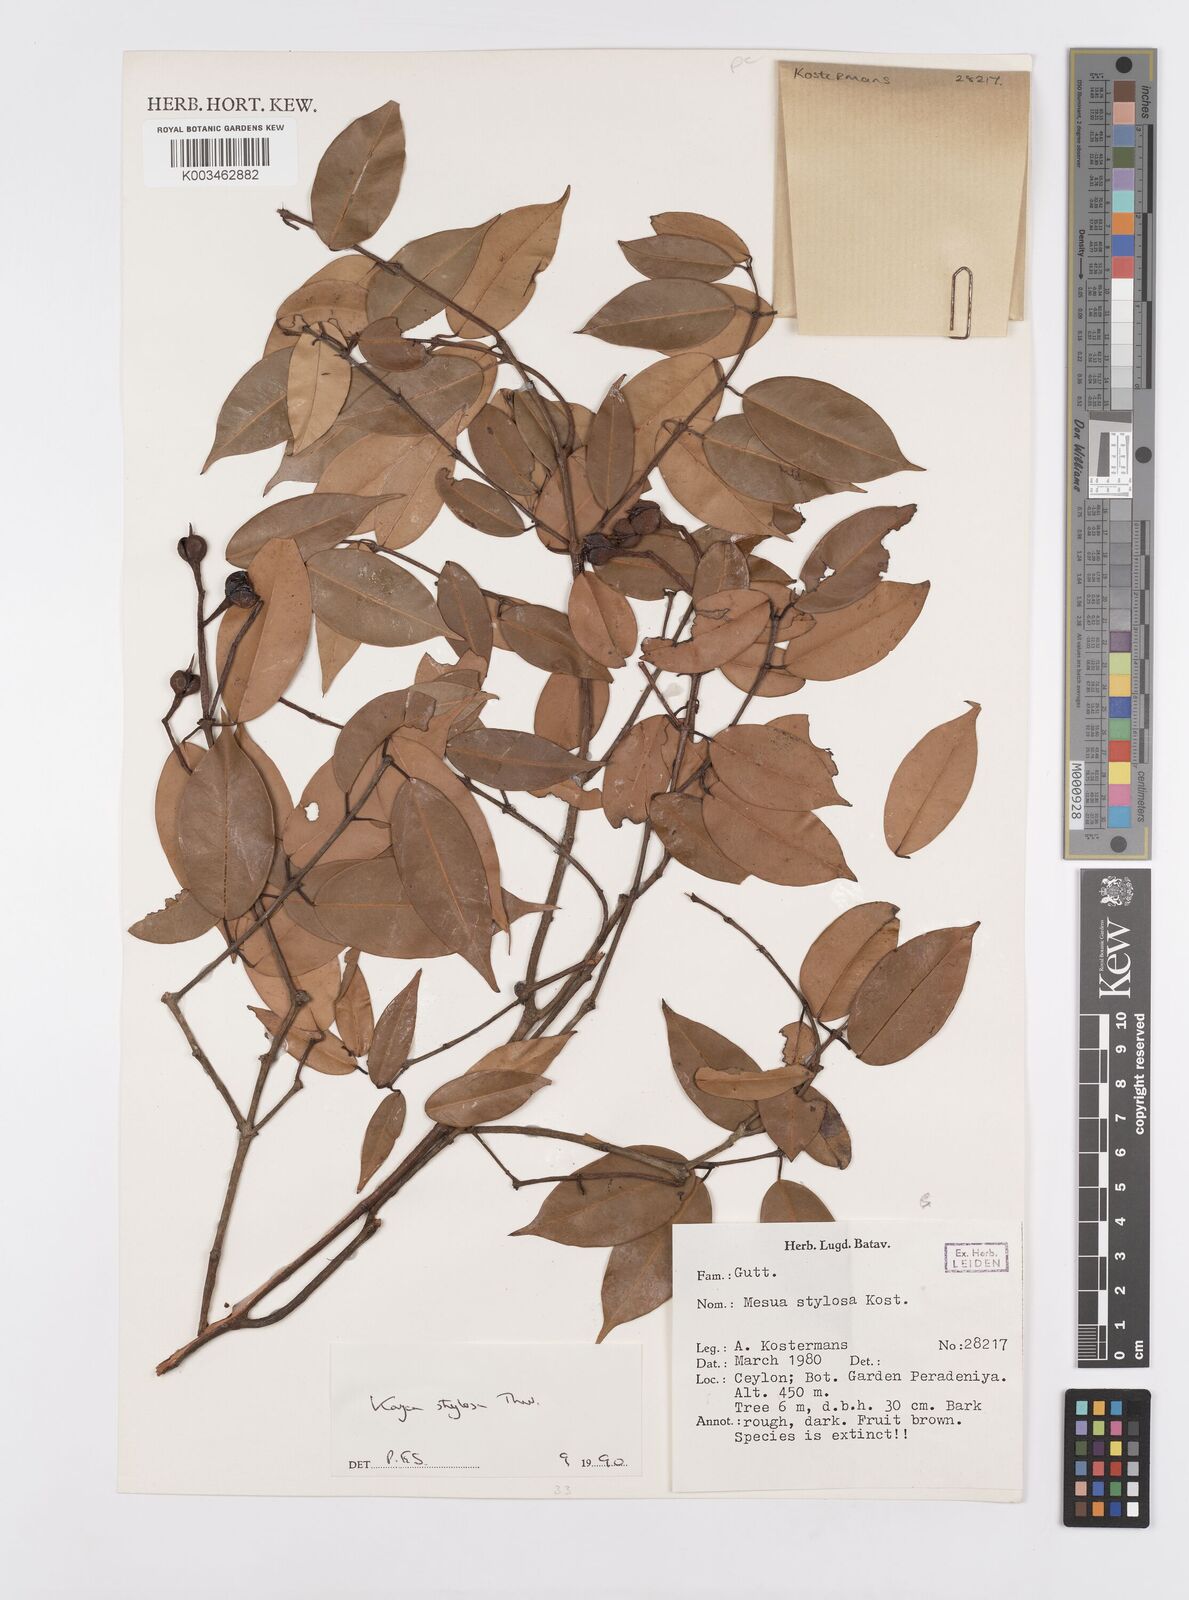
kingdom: Plantae
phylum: Tracheophyta
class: Magnoliopsida
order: Malpighiales
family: Calophyllaceae
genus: Kayea
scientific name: Kayea stylosa
